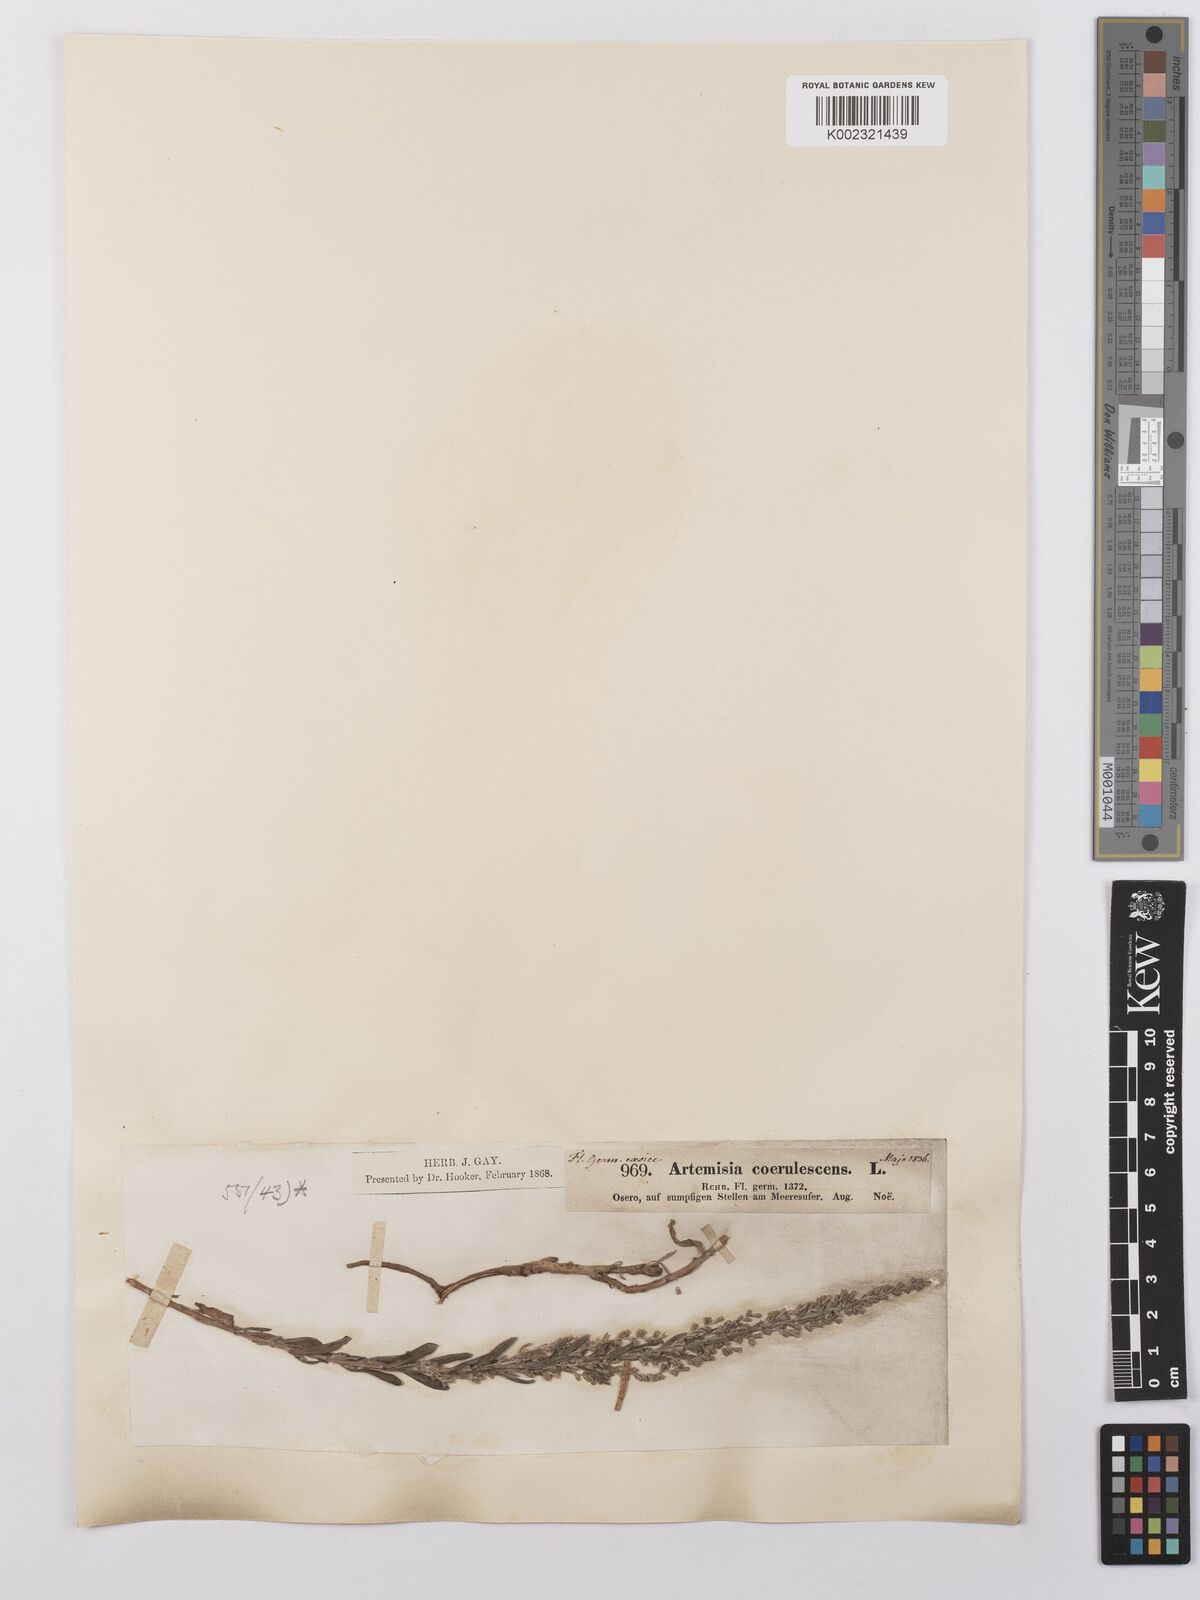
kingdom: Plantae
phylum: Tracheophyta
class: Magnoliopsida
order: Asterales
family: Asteraceae
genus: Artemisia
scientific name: Artemisia caerulescens
